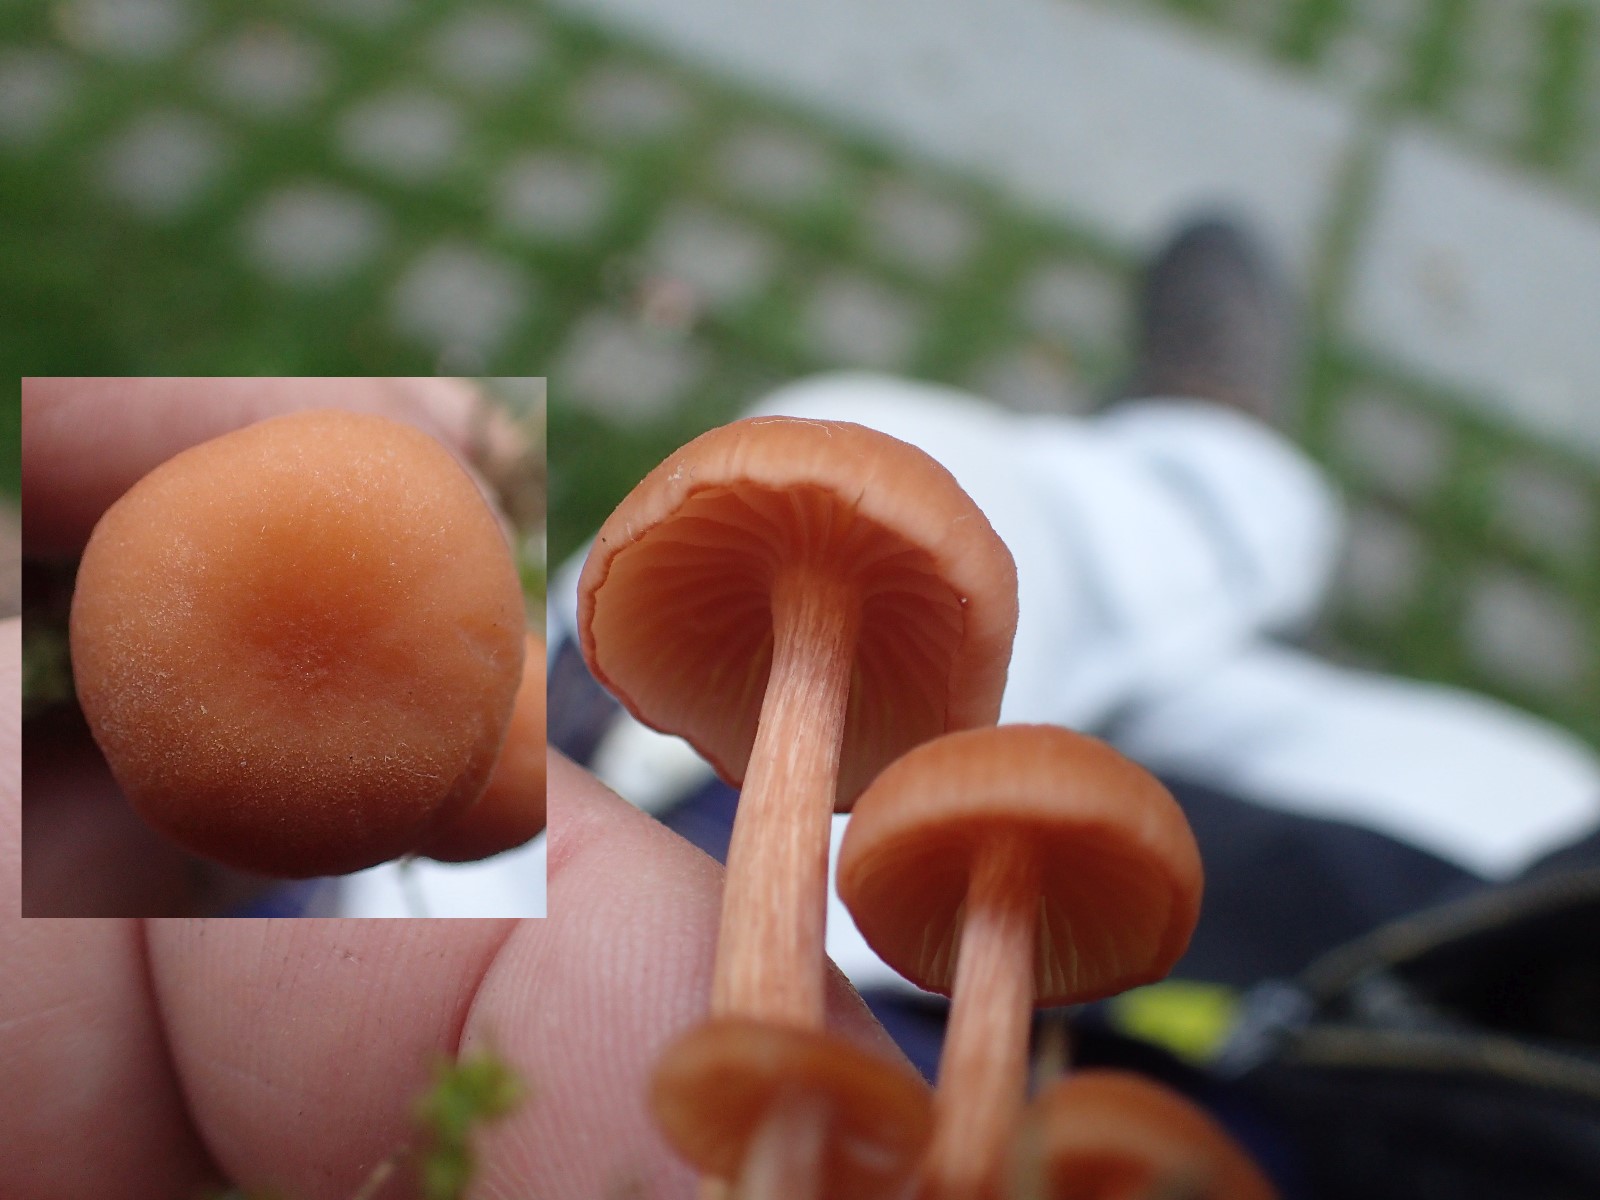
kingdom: Fungi
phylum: Basidiomycota
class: Agaricomycetes
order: Agaricales
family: Hydnangiaceae
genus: Laccaria
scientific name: Laccaria laccata
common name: rød ametysthat
